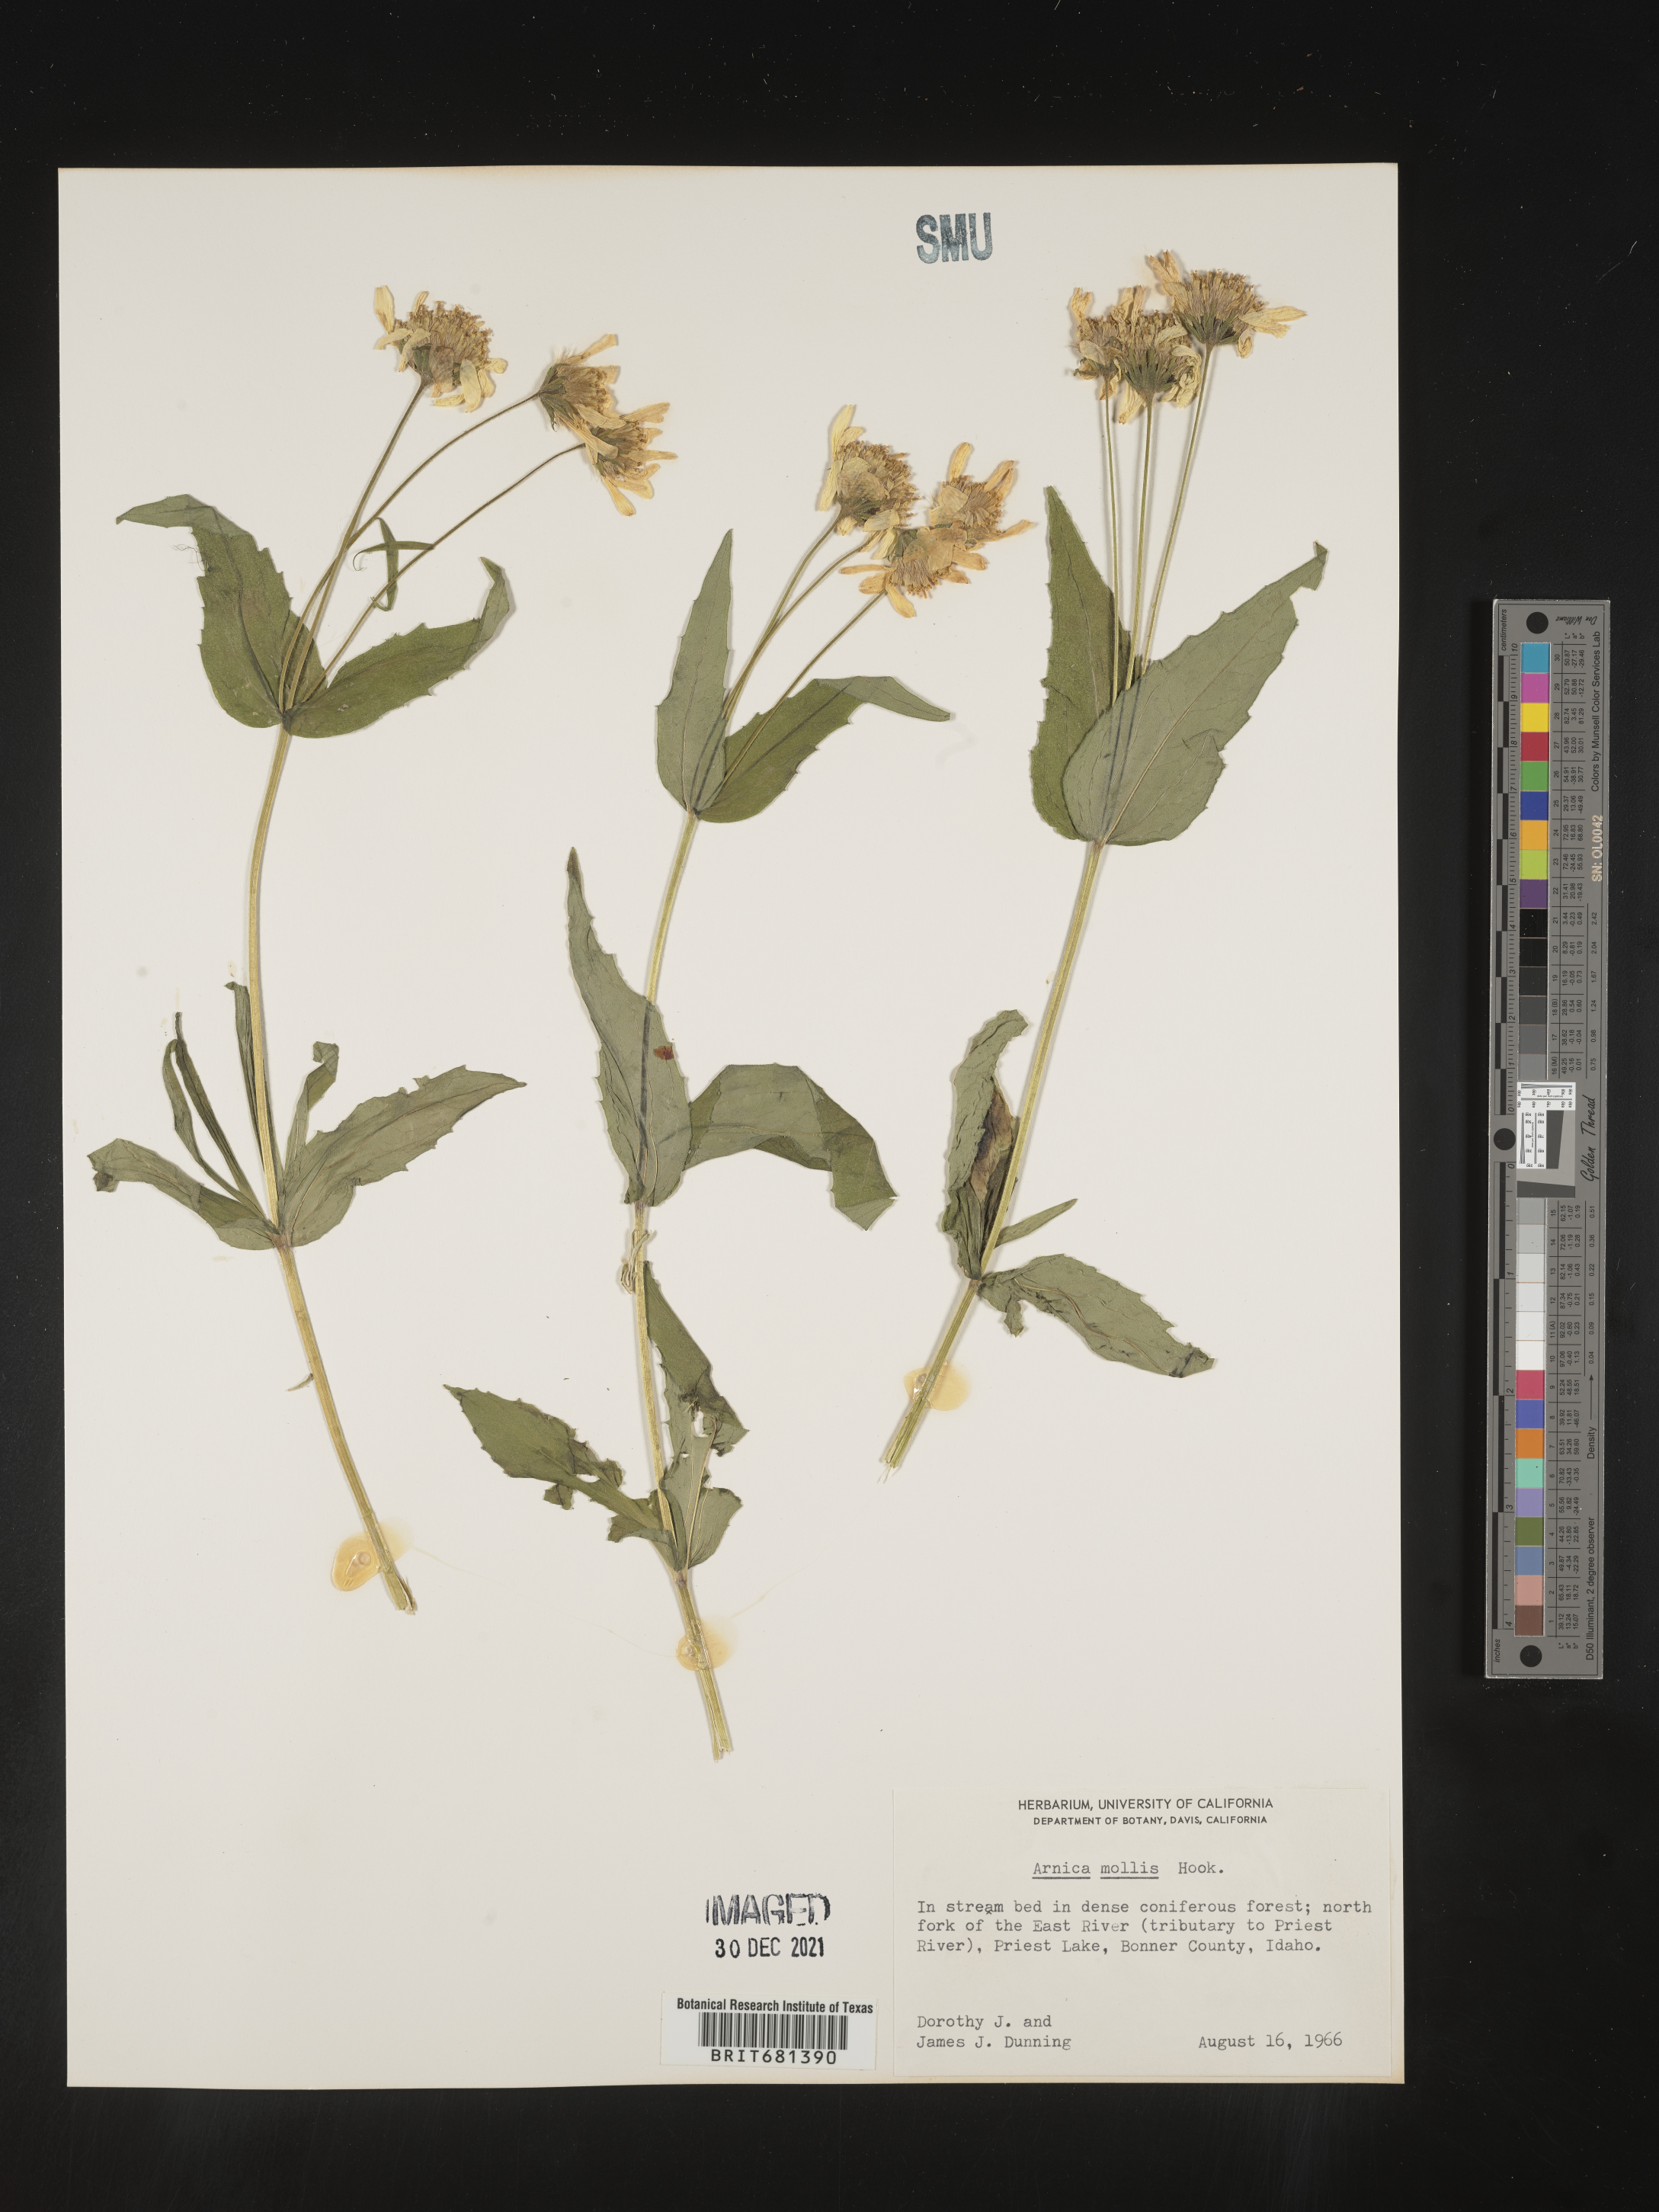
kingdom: Plantae
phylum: Tracheophyta
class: Magnoliopsida
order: Asterales
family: Asteraceae
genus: Arnica
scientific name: Arnica mollis
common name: Hairy arnica
